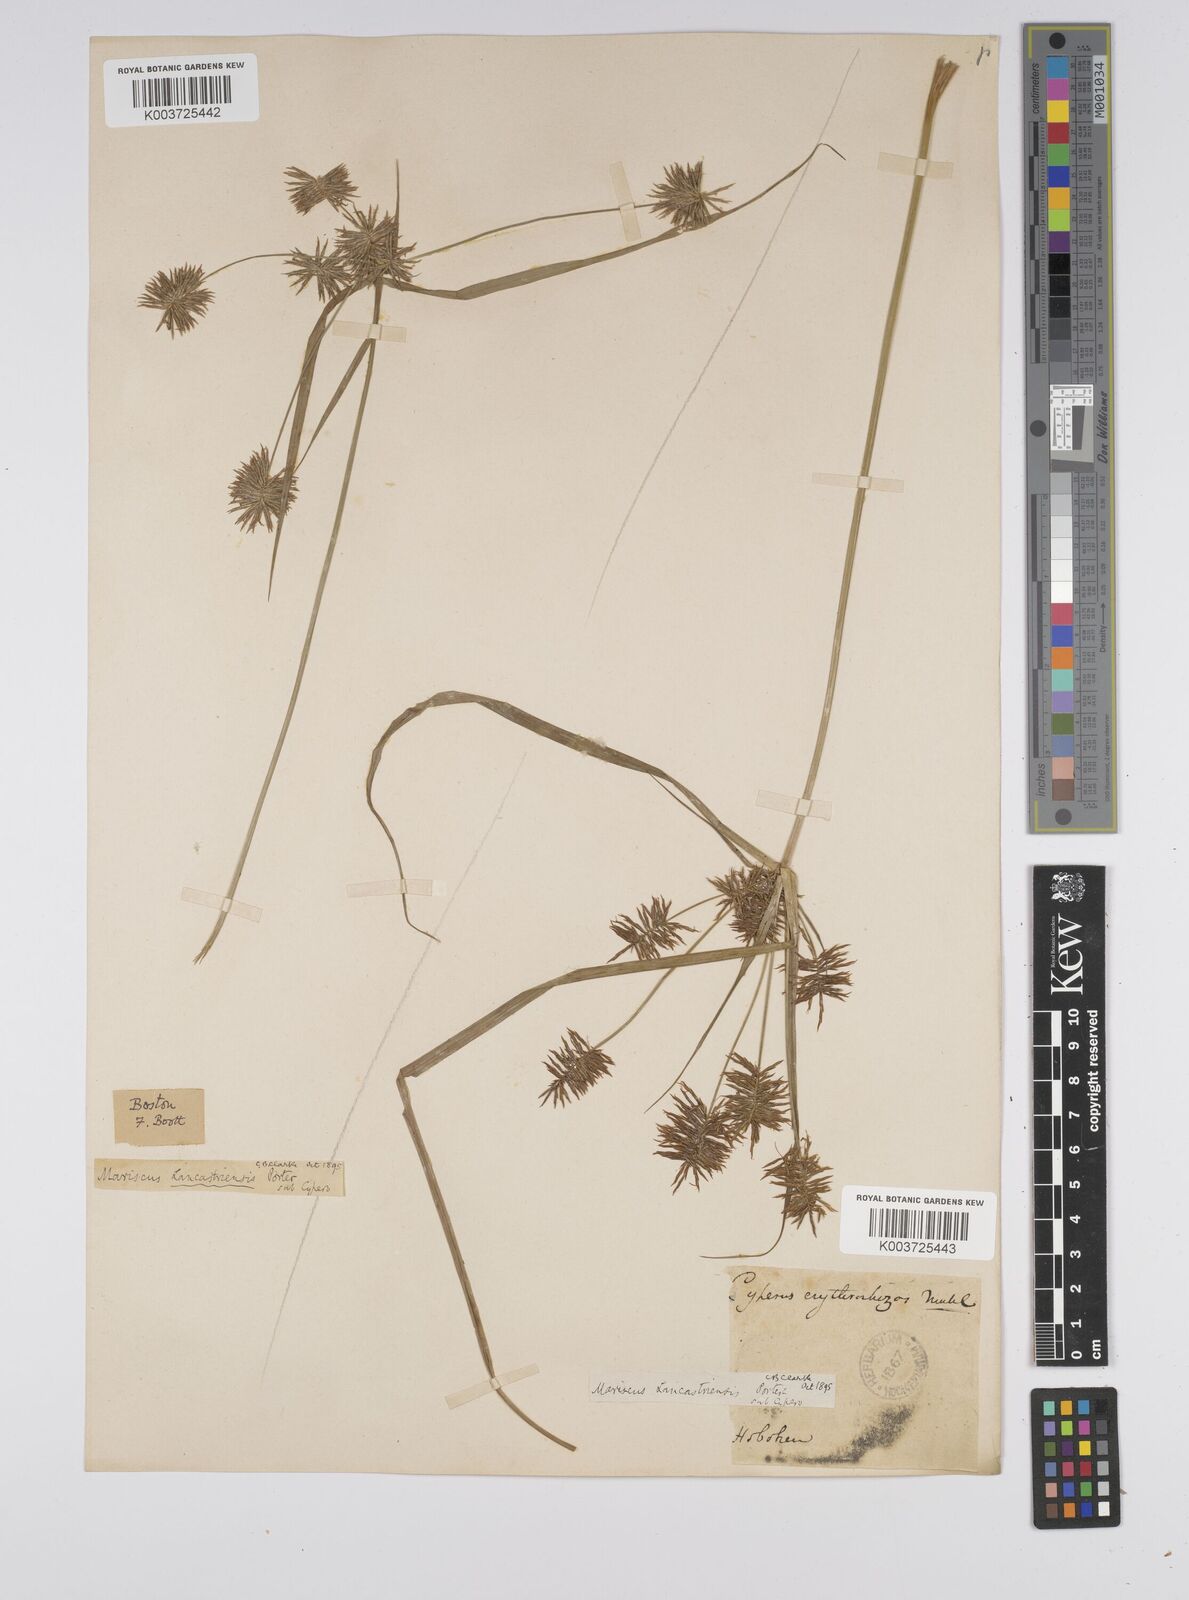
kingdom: Plantae
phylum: Tracheophyta
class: Liliopsida
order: Poales
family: Cyperaceae
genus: Cyperus
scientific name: Cyperus lancastriensis
